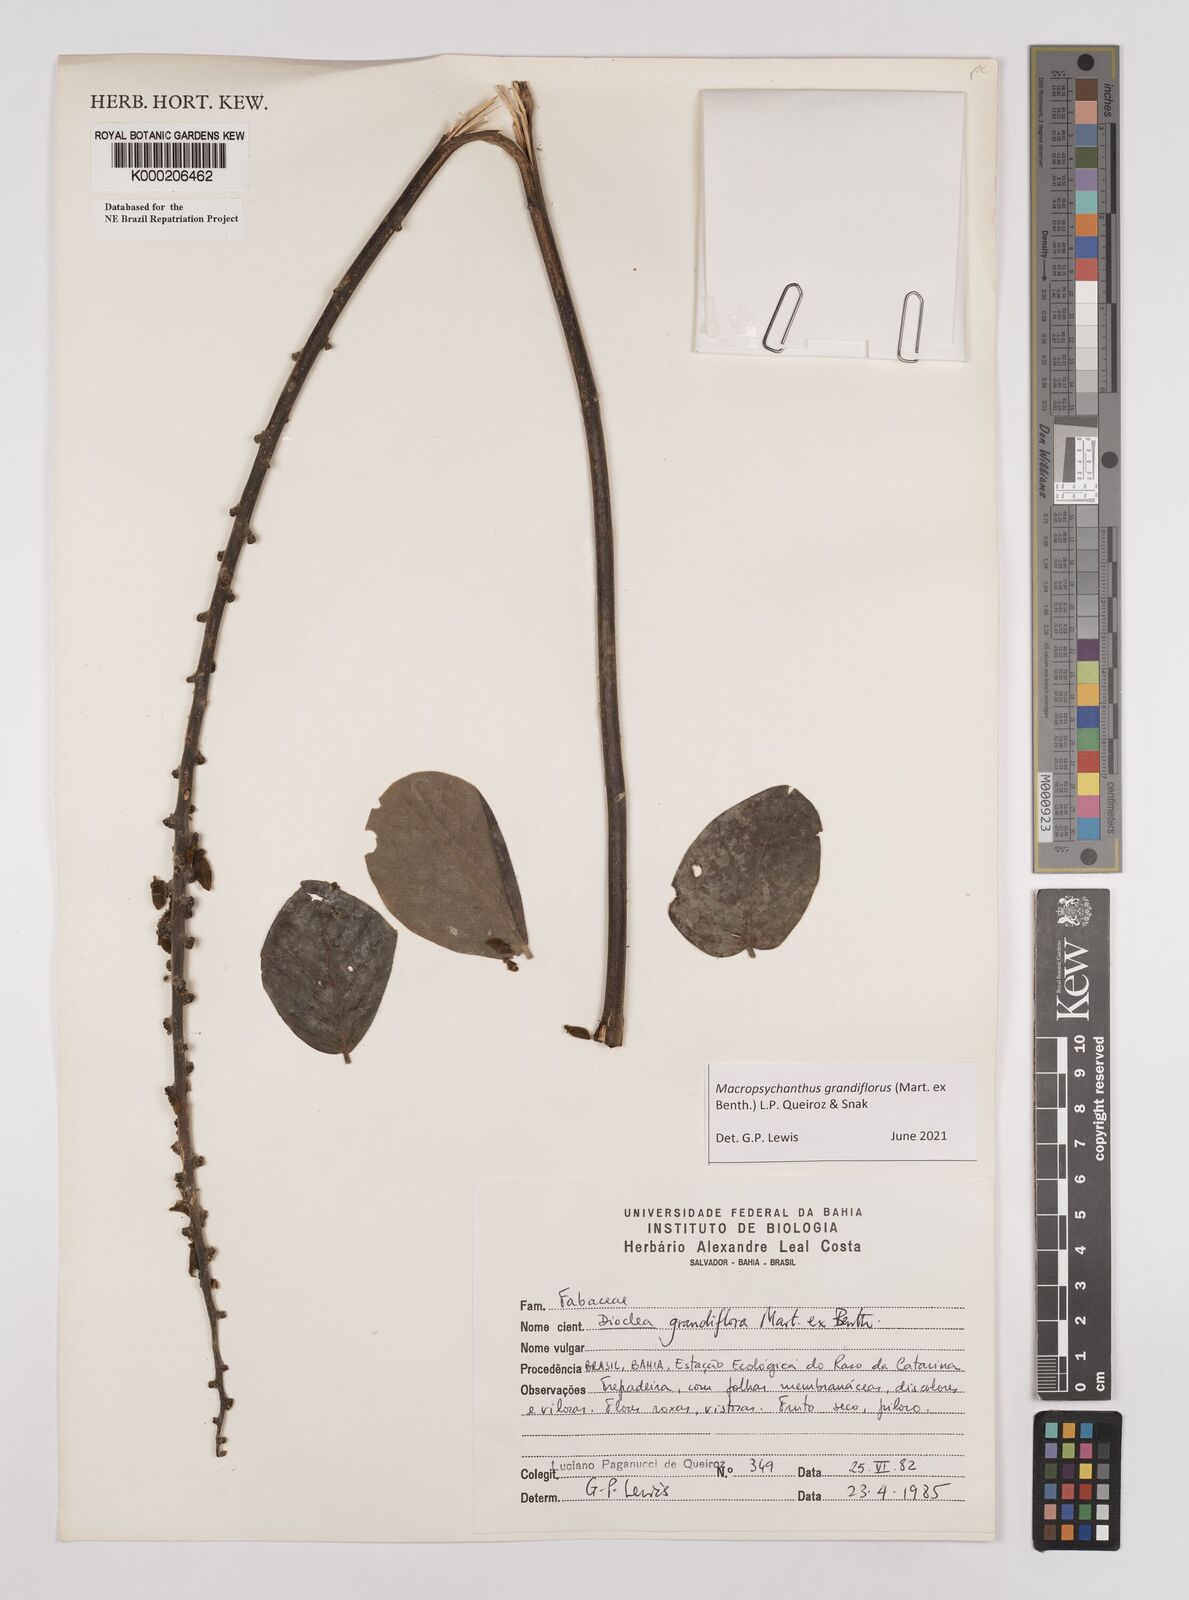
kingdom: Plantae
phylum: Tracheophyta
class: Magnoliopsida
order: Fabales
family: Fabaceae
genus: Macropsychanthus
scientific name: Macropsychanthus grandiflorus
